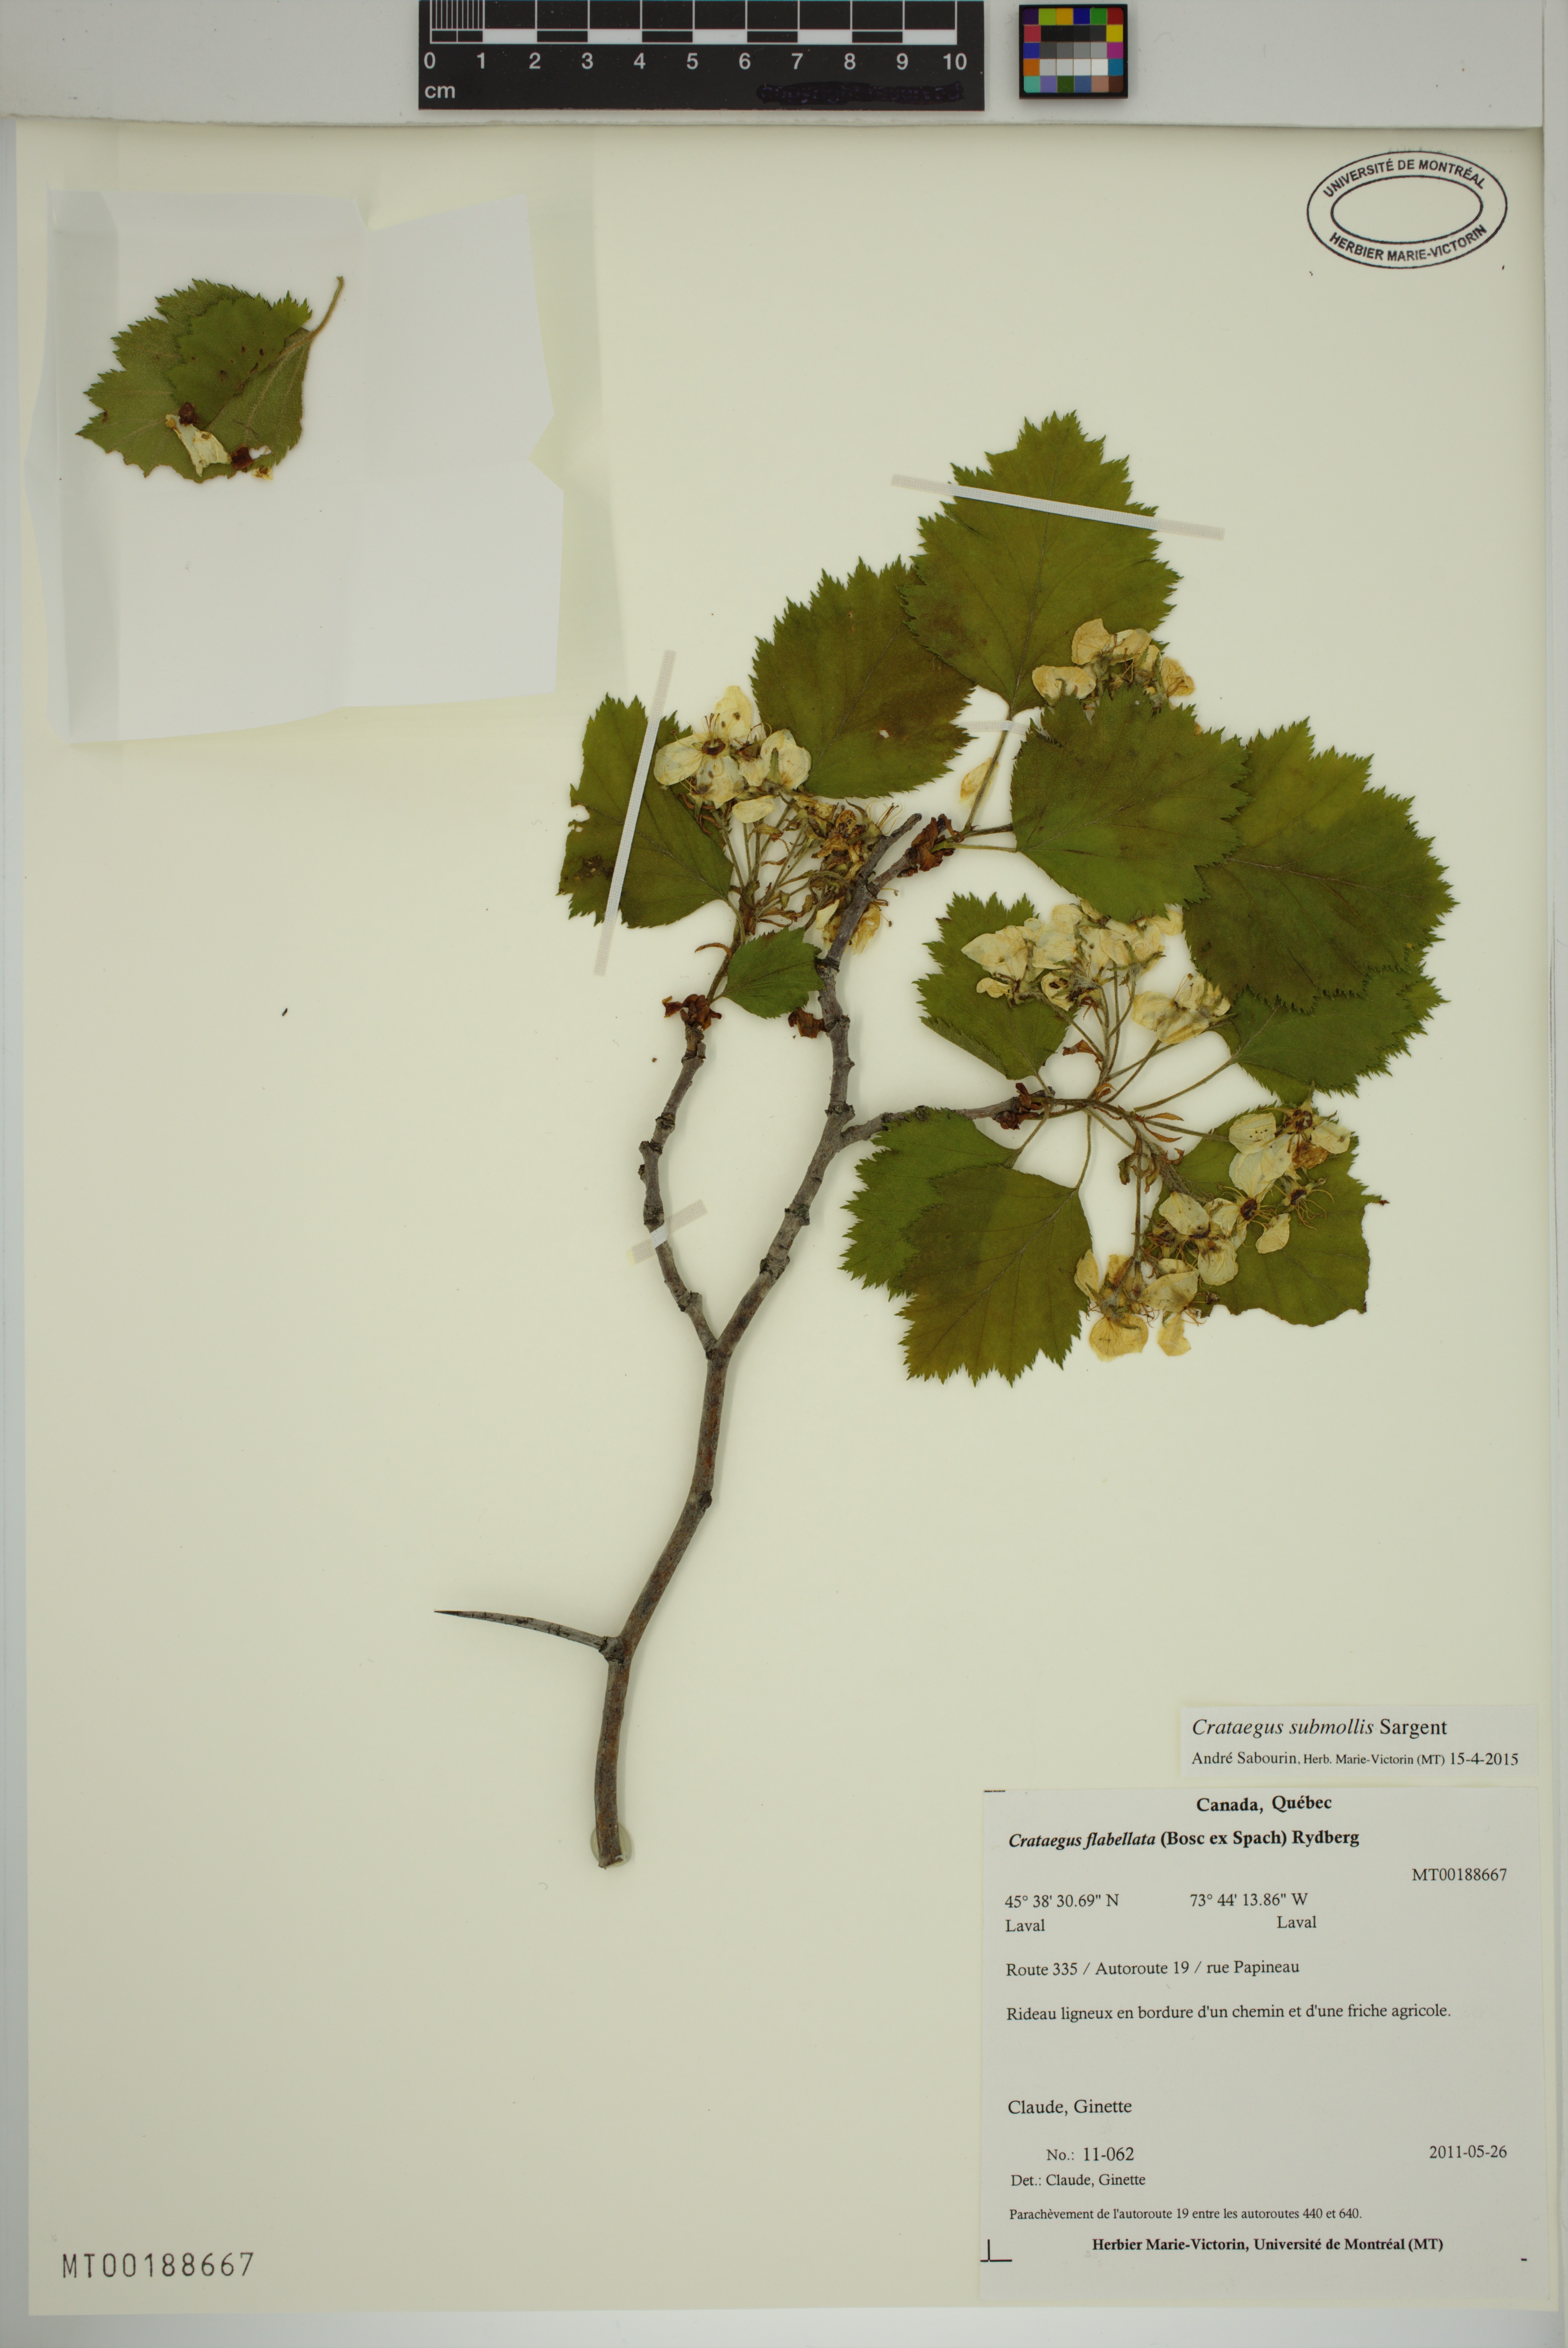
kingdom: Plantae
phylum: Tracheophyta
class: Magnoliopsida
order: Rosales
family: Rosaceae
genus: Crataegus
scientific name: Crataegus submollis
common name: Hairy cockspurthorn
